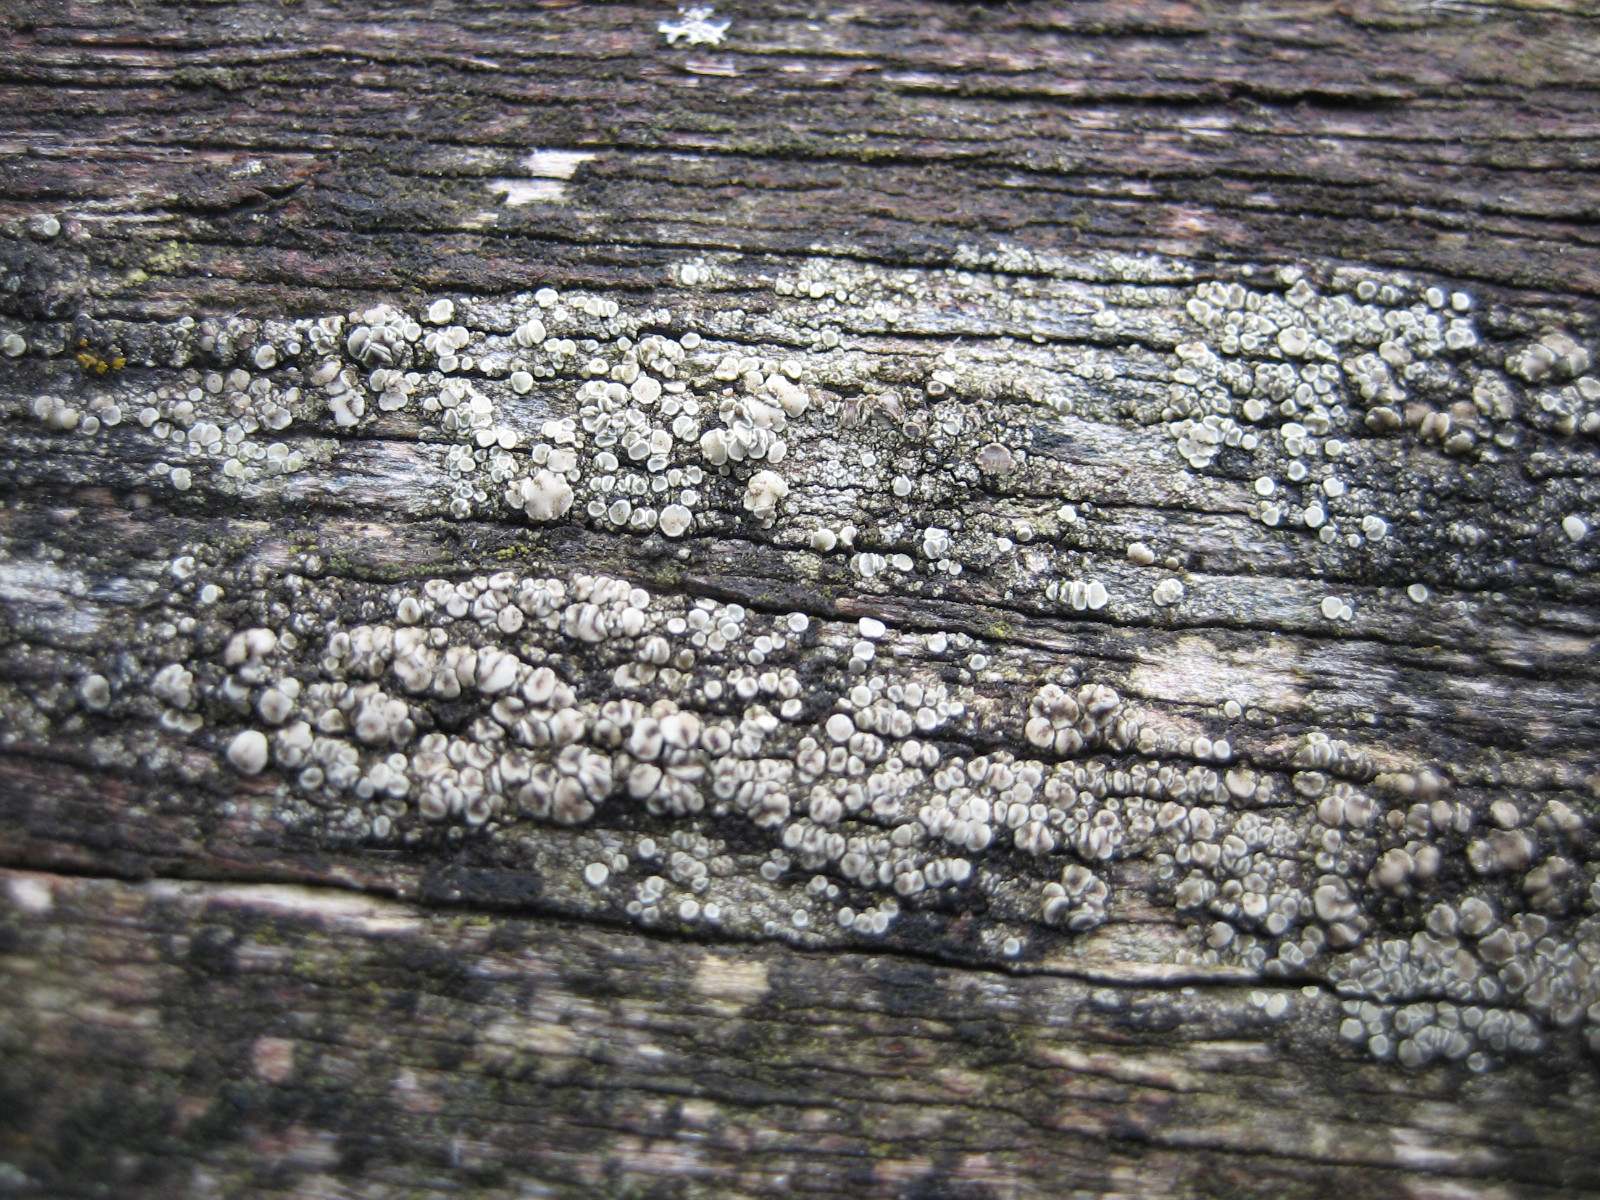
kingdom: Fungi
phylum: Ascomycota
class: Lecanoromycetes
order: Lecanorales
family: Lecanoraceae
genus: Lecanora
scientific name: Lecanora polytropa
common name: bleggrøn kantskivelav
